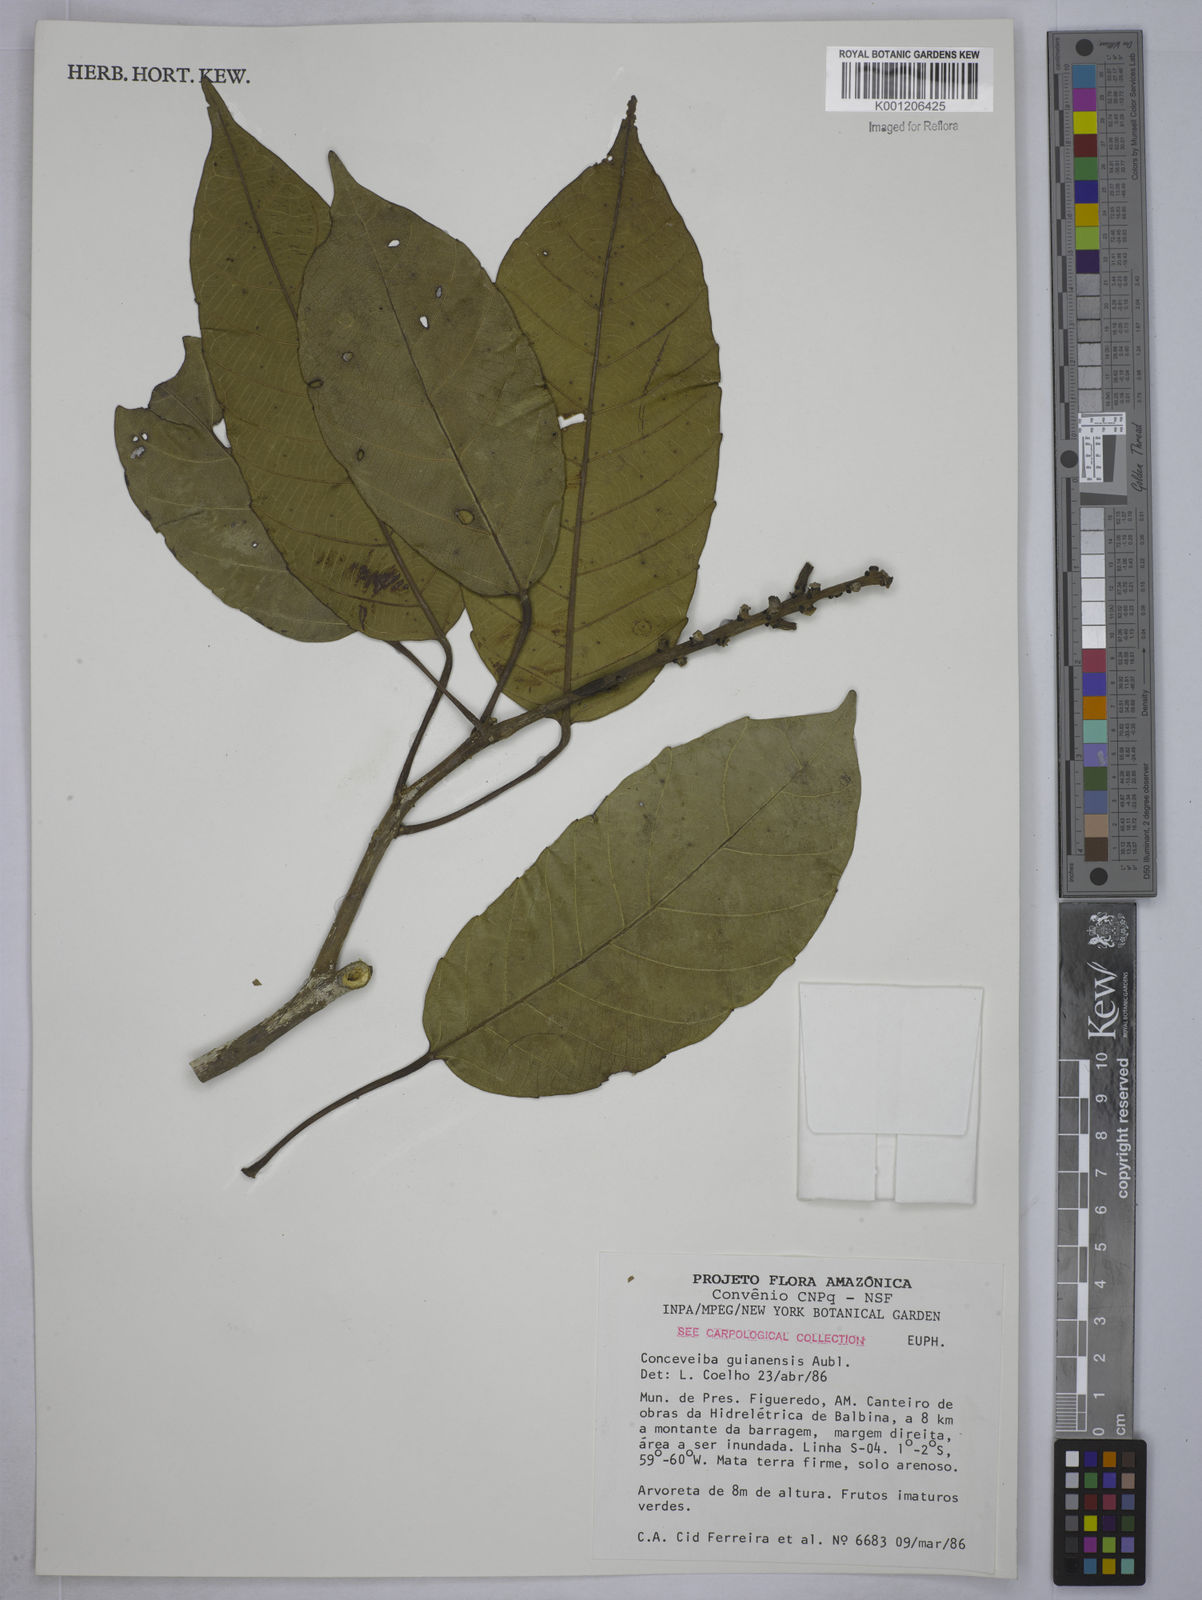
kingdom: Plantae
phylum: Tracheophyta
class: Magnoliopsida
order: Malpighiales
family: Euphorbiaceae
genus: Conceveiba
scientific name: Conceveiba guianensis
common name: Poatoru
